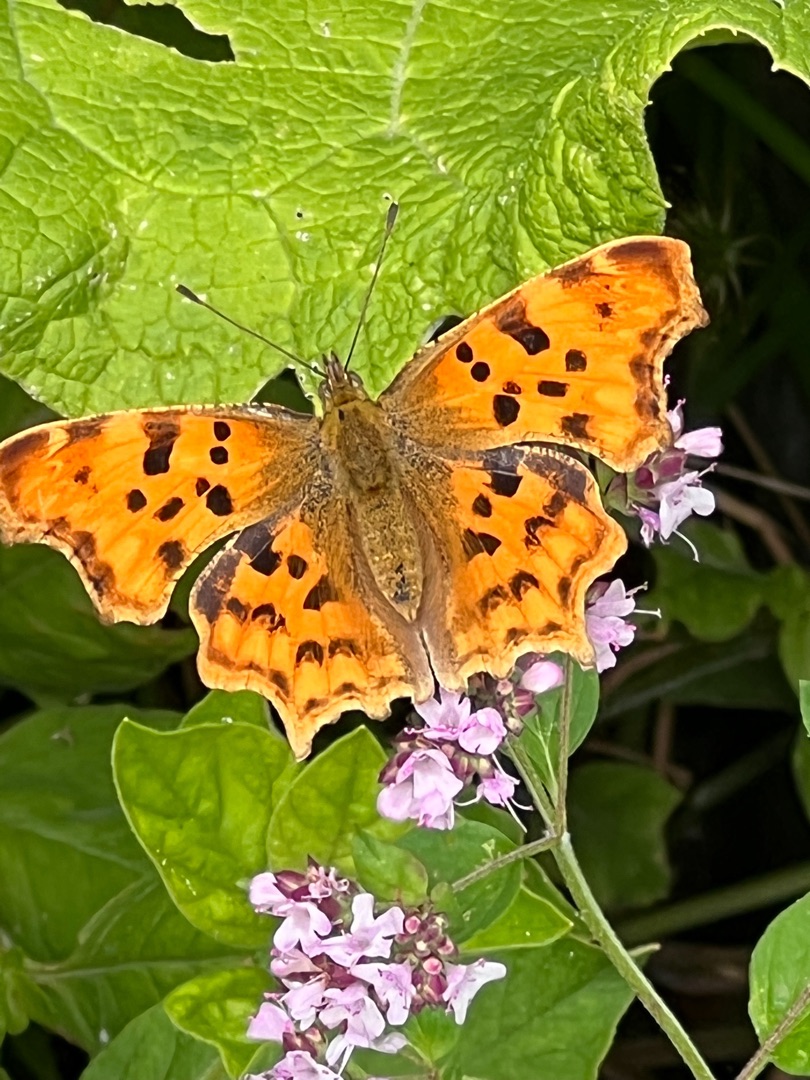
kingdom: Animalia
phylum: Arthropoda
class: Insecta
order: Lepidoptera
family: Nymphalidae
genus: Polygonia
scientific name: Polygonia c-album
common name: Det hvide C
